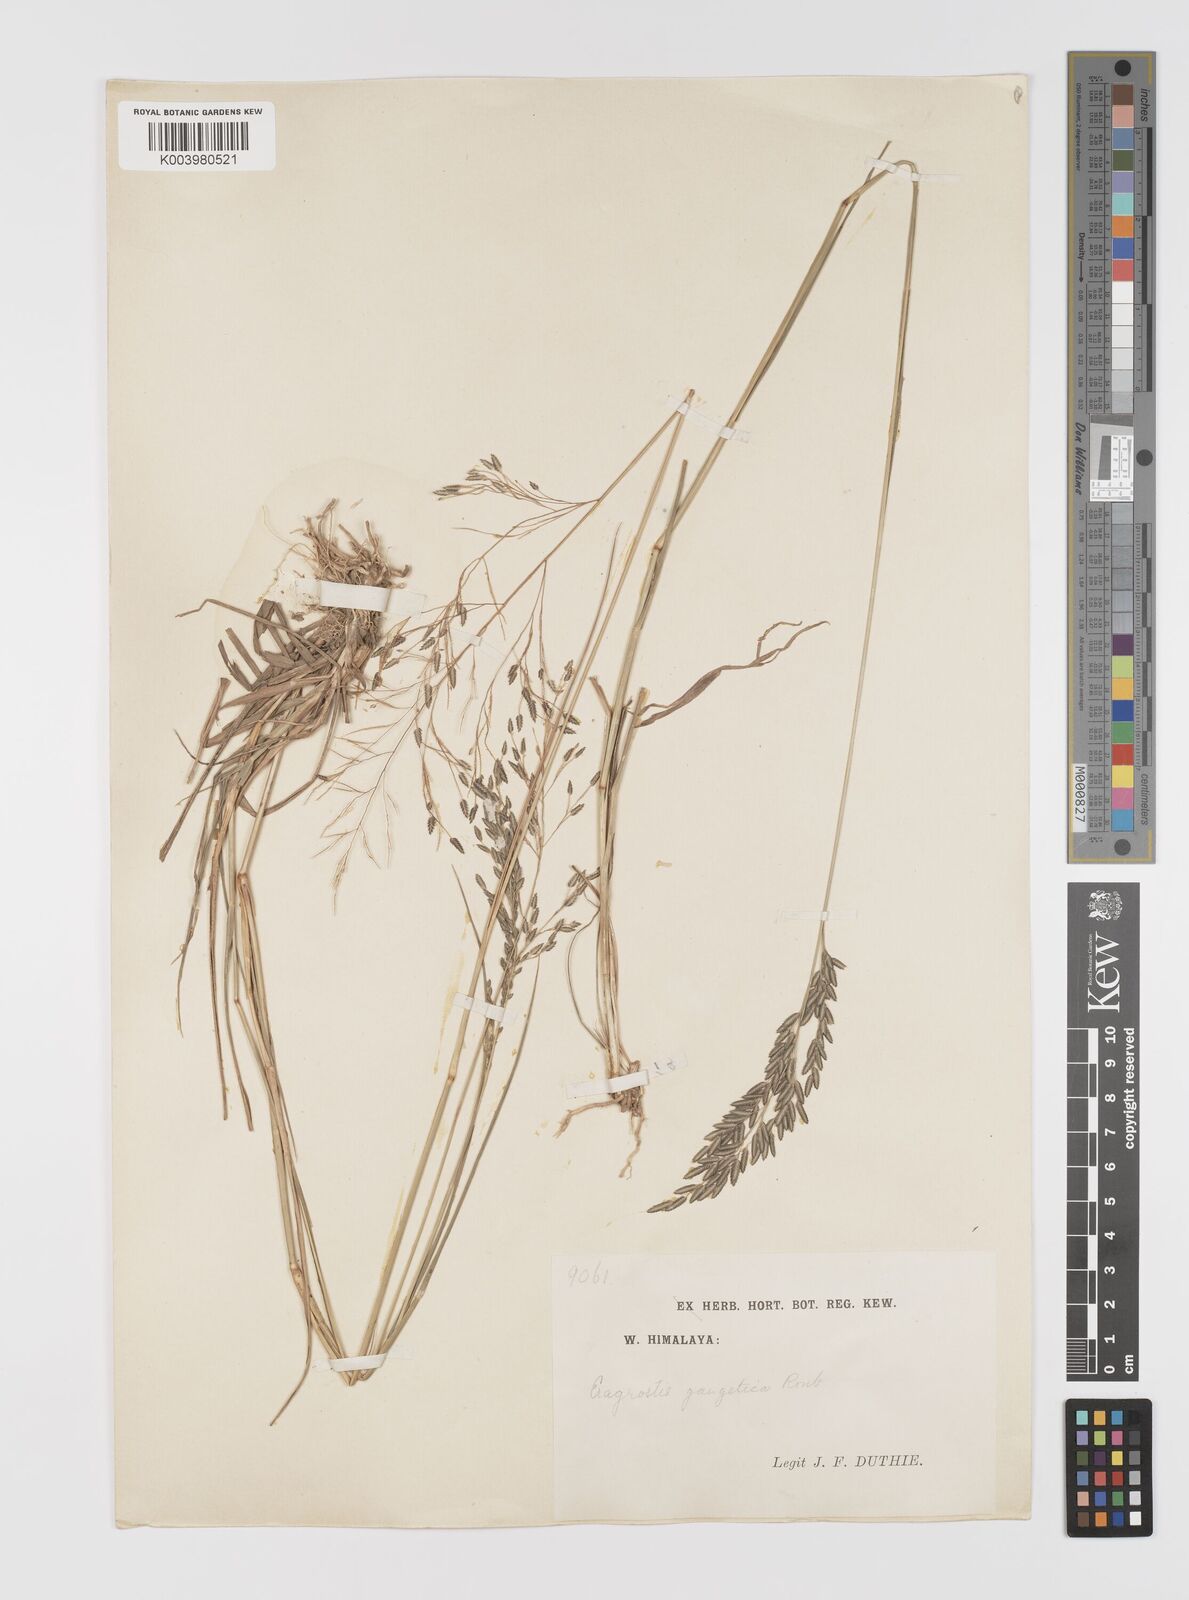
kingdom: Plantae
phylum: Tracheophyta
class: Liliopsida
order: Poales
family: Poaceae
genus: Eragrostis
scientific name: Eragrostis atrovirens
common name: Thalia lovegrass
